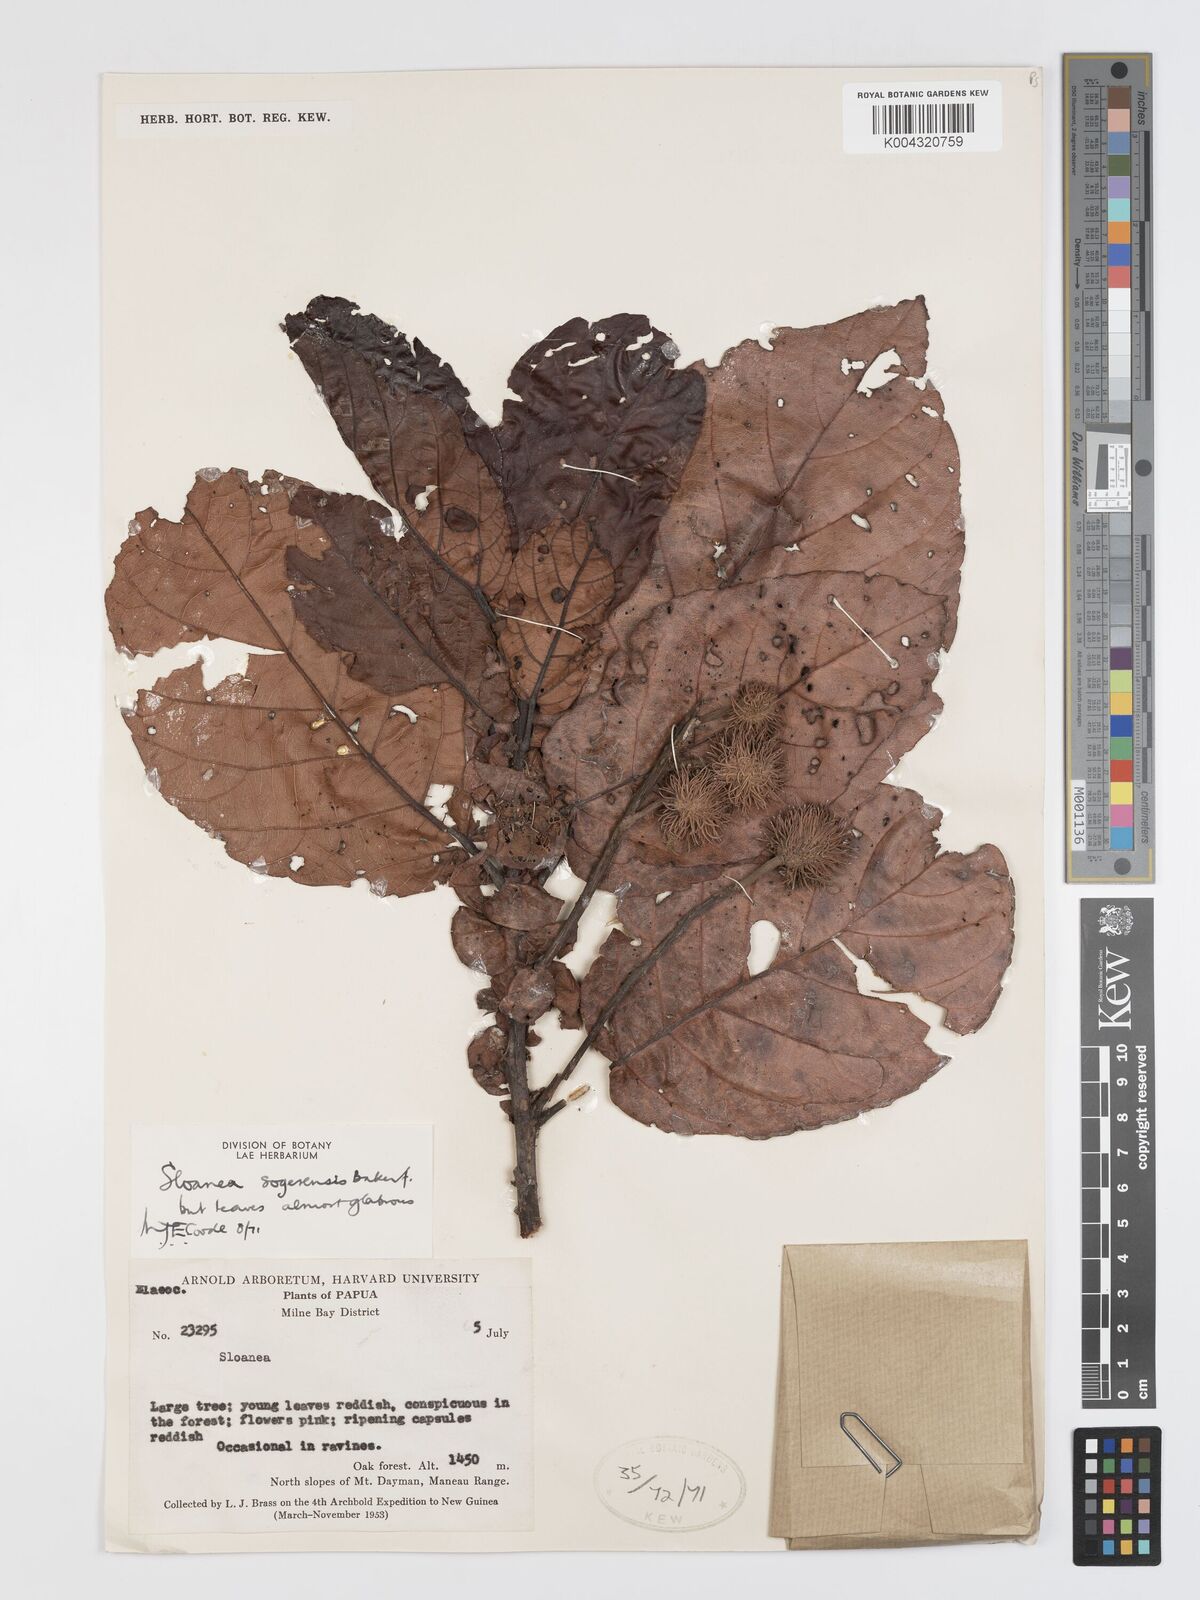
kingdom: Plantae
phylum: Tracheophyta
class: Magnoliopsida
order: Oxalidales
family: Elaeocarpaceae
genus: Sloanea
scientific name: Sloanea sogerensis
